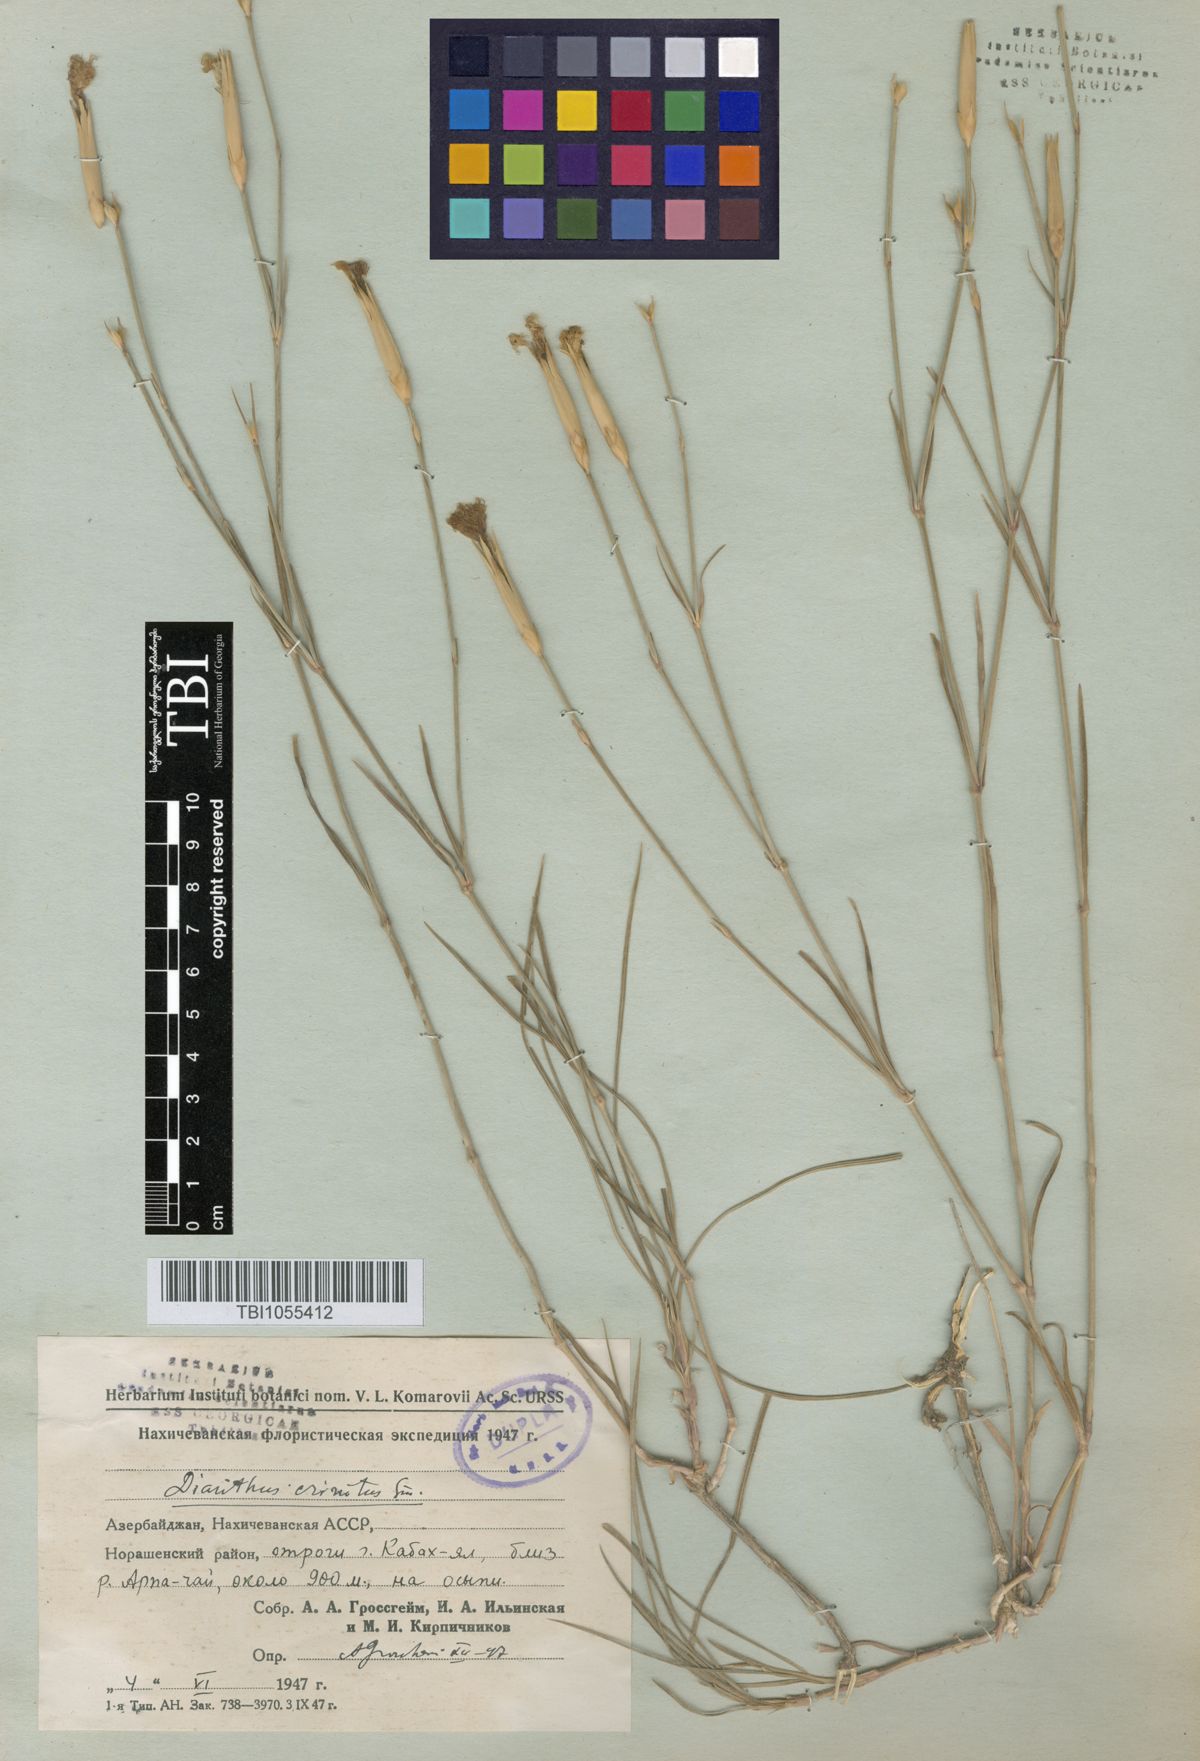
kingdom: Plantae
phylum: Tracheophyta
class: Magnoliopsida
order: Caryophyllales
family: Caryophyllaceae
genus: Dianthus
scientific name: Dianthus crinitus
